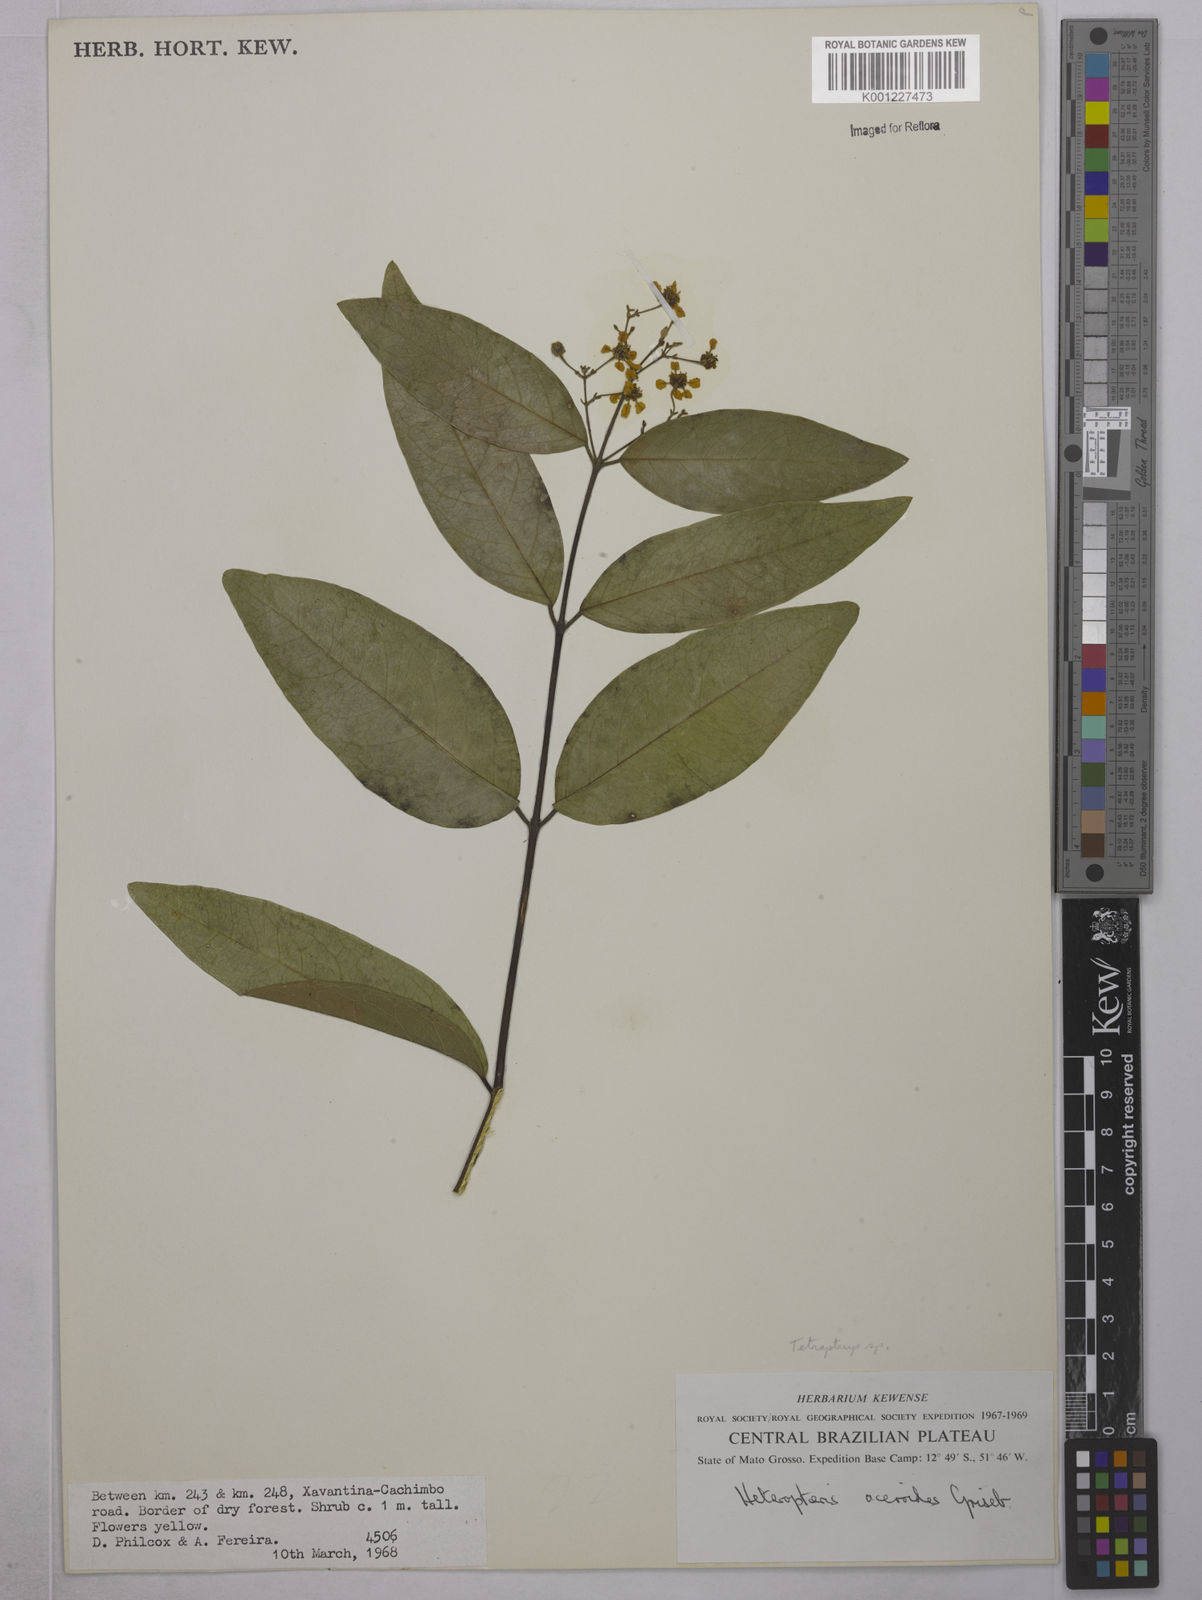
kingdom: Plantae
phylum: Tracheophyta
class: Magnoliopsida
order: Malpighiales
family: Malpighiaceae
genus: Tetrapterys
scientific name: Tetrapterys
